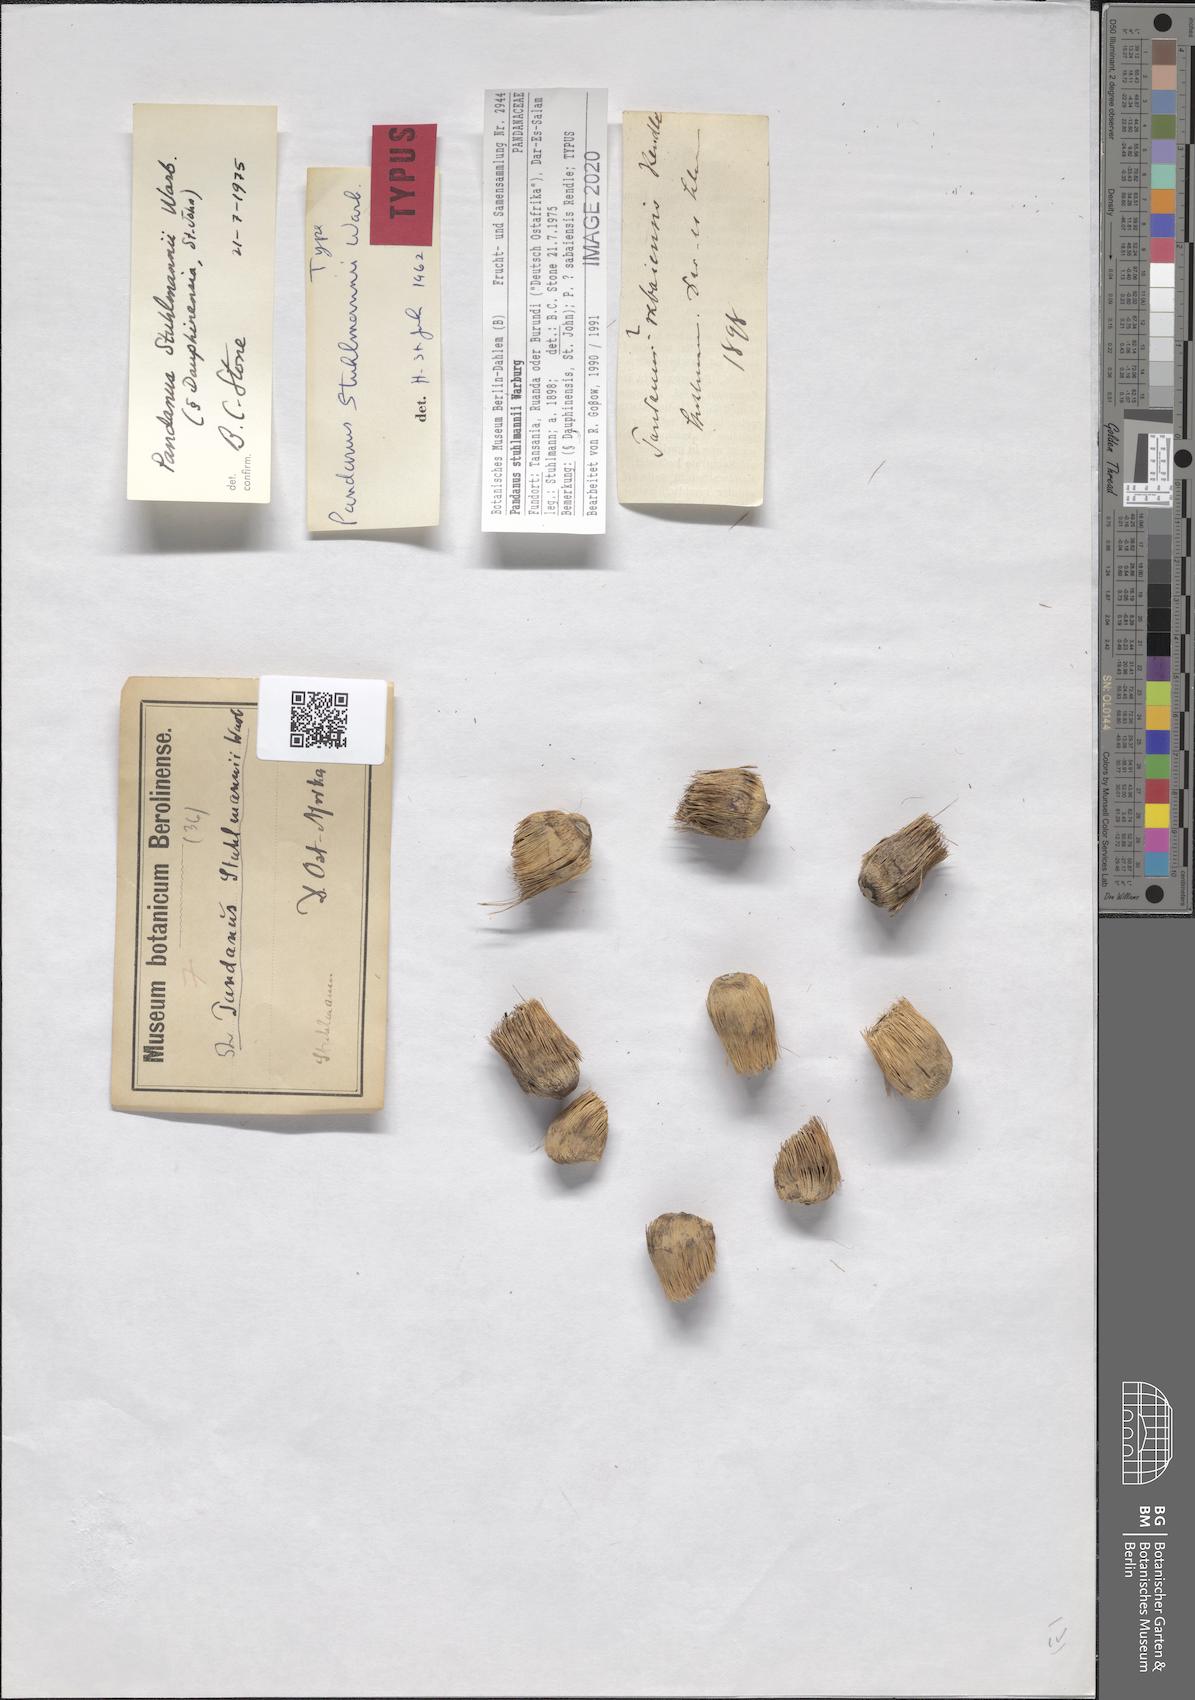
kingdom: Plantae
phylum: Tracheophyta
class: Liliopsida
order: Pandanales
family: Pandanaceae
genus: Pandanus
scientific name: Pandanus rabaiensis
